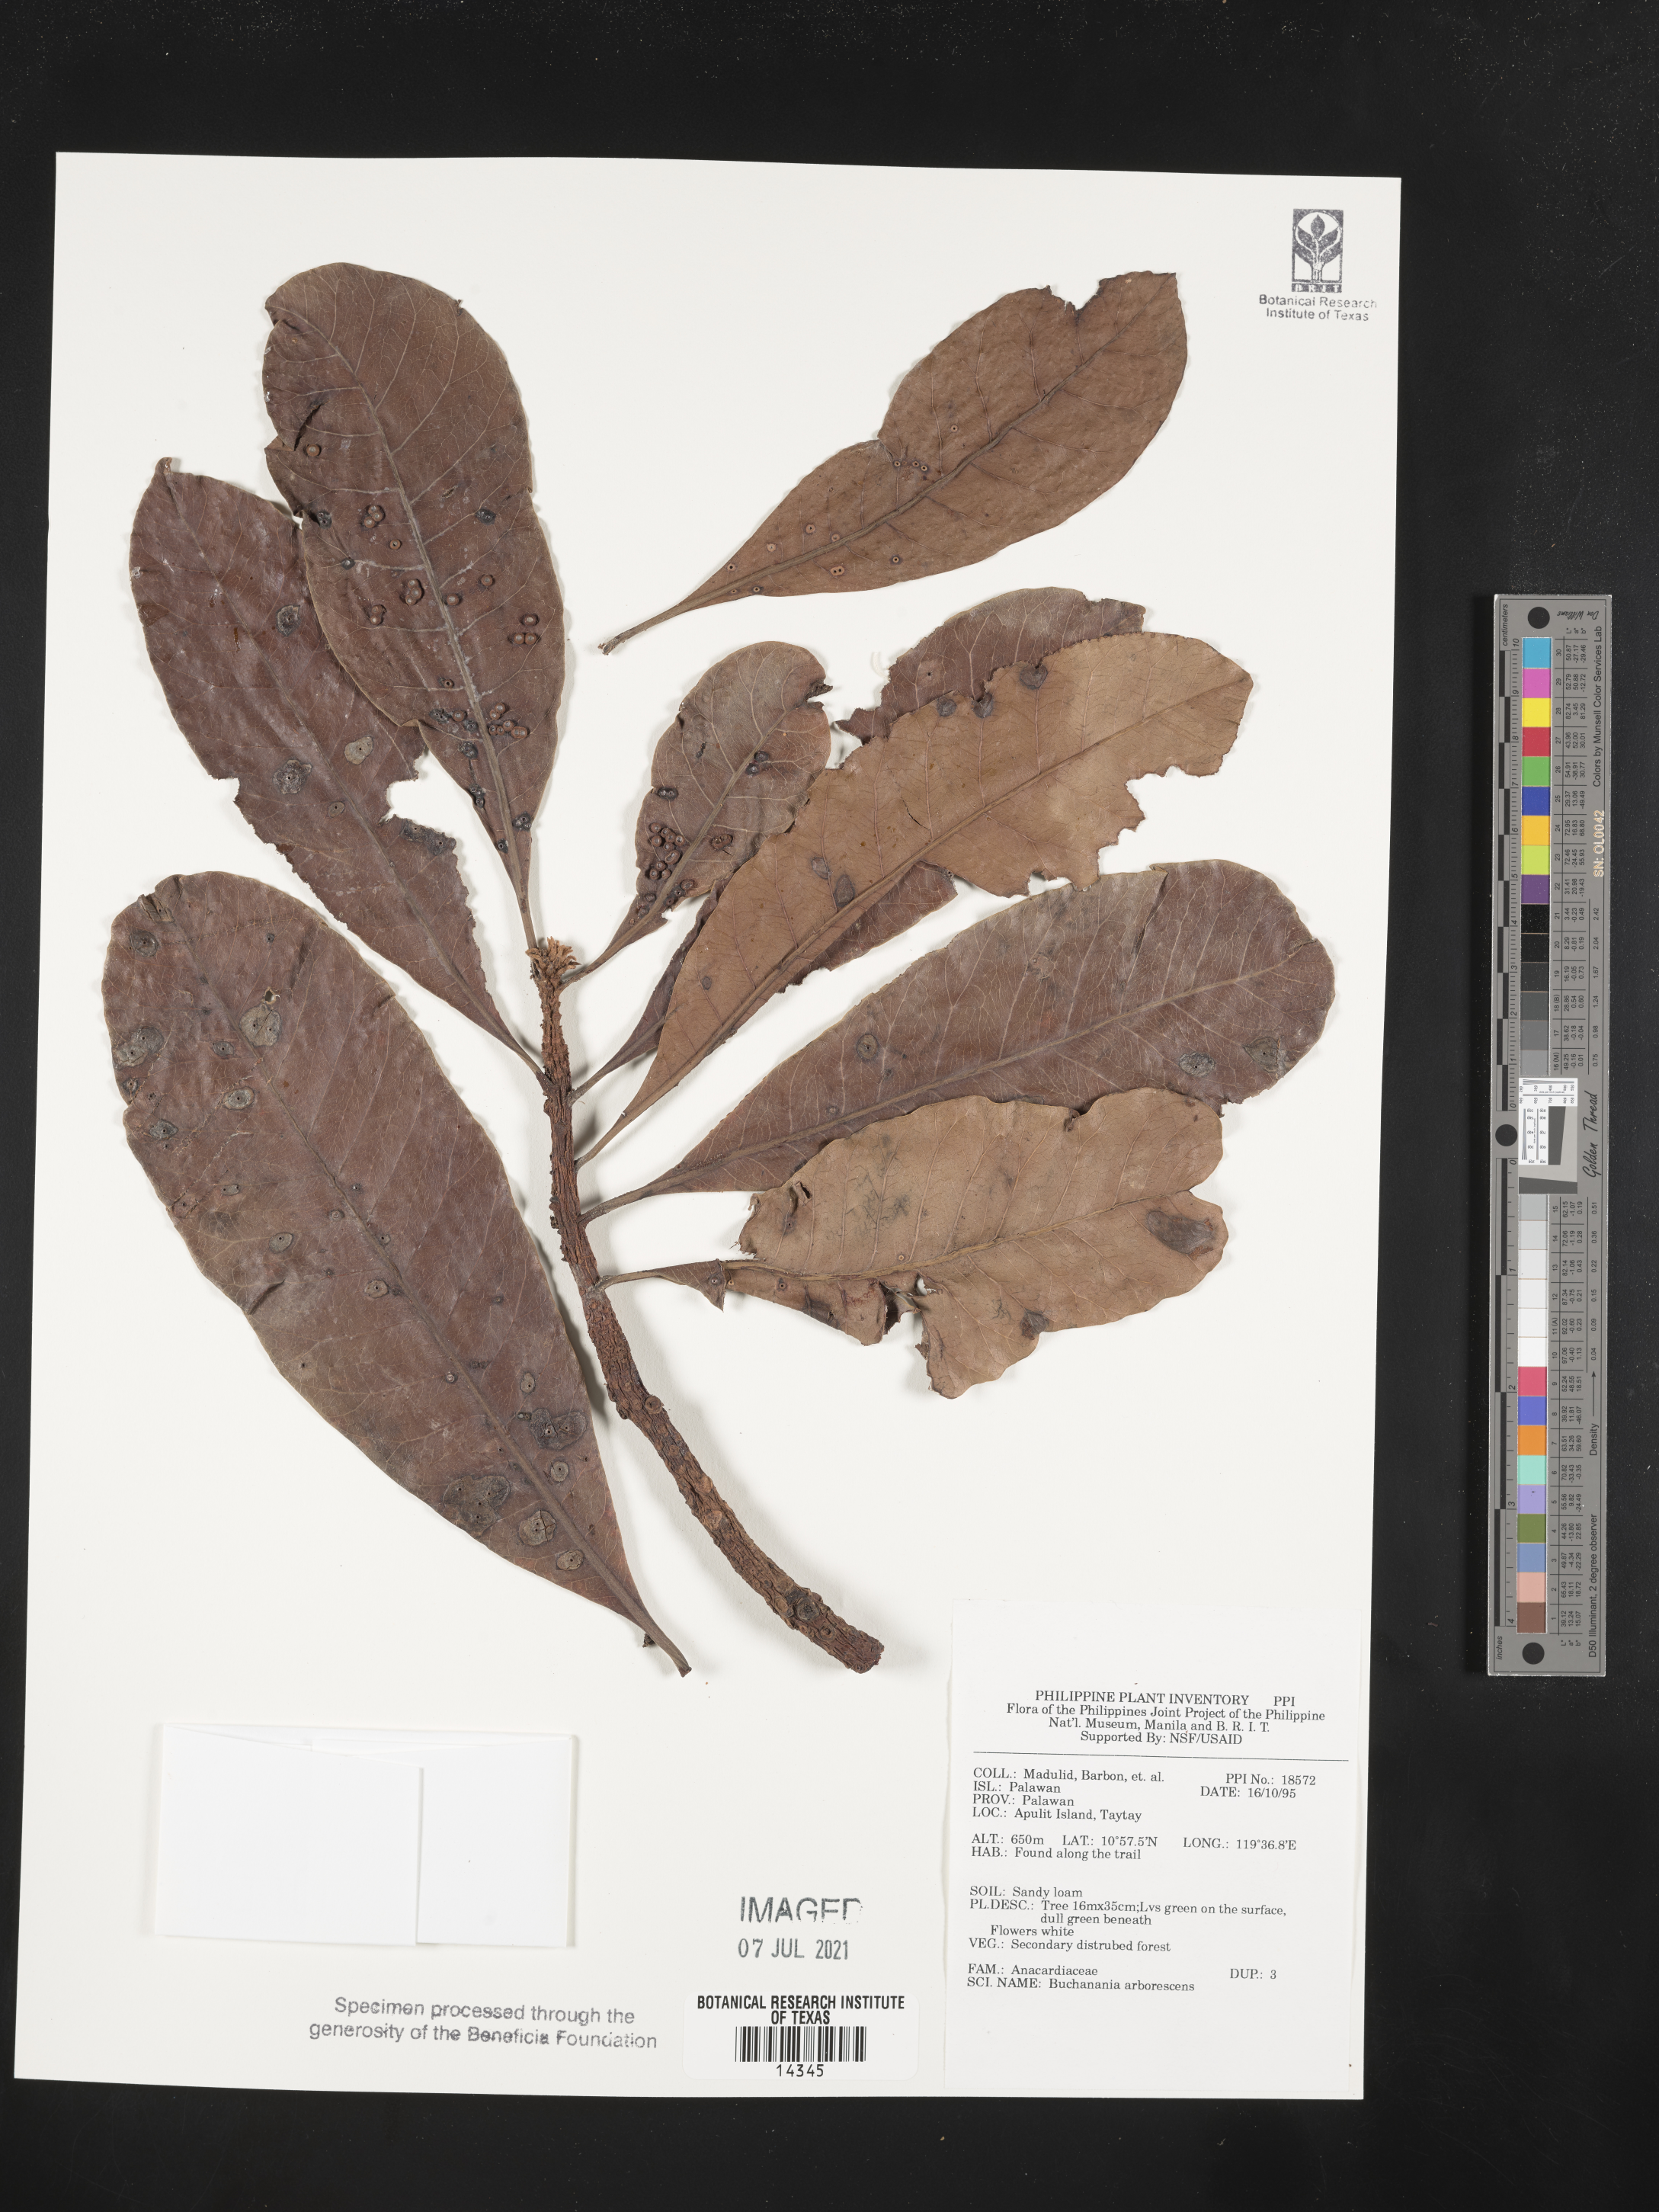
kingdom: Plantae
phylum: Tracheophyta
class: Magnoliopsida
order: Sapindales
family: Anacardiaceae
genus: Buchanania
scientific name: Buchanania arborescens
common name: Sparrow’s mango
